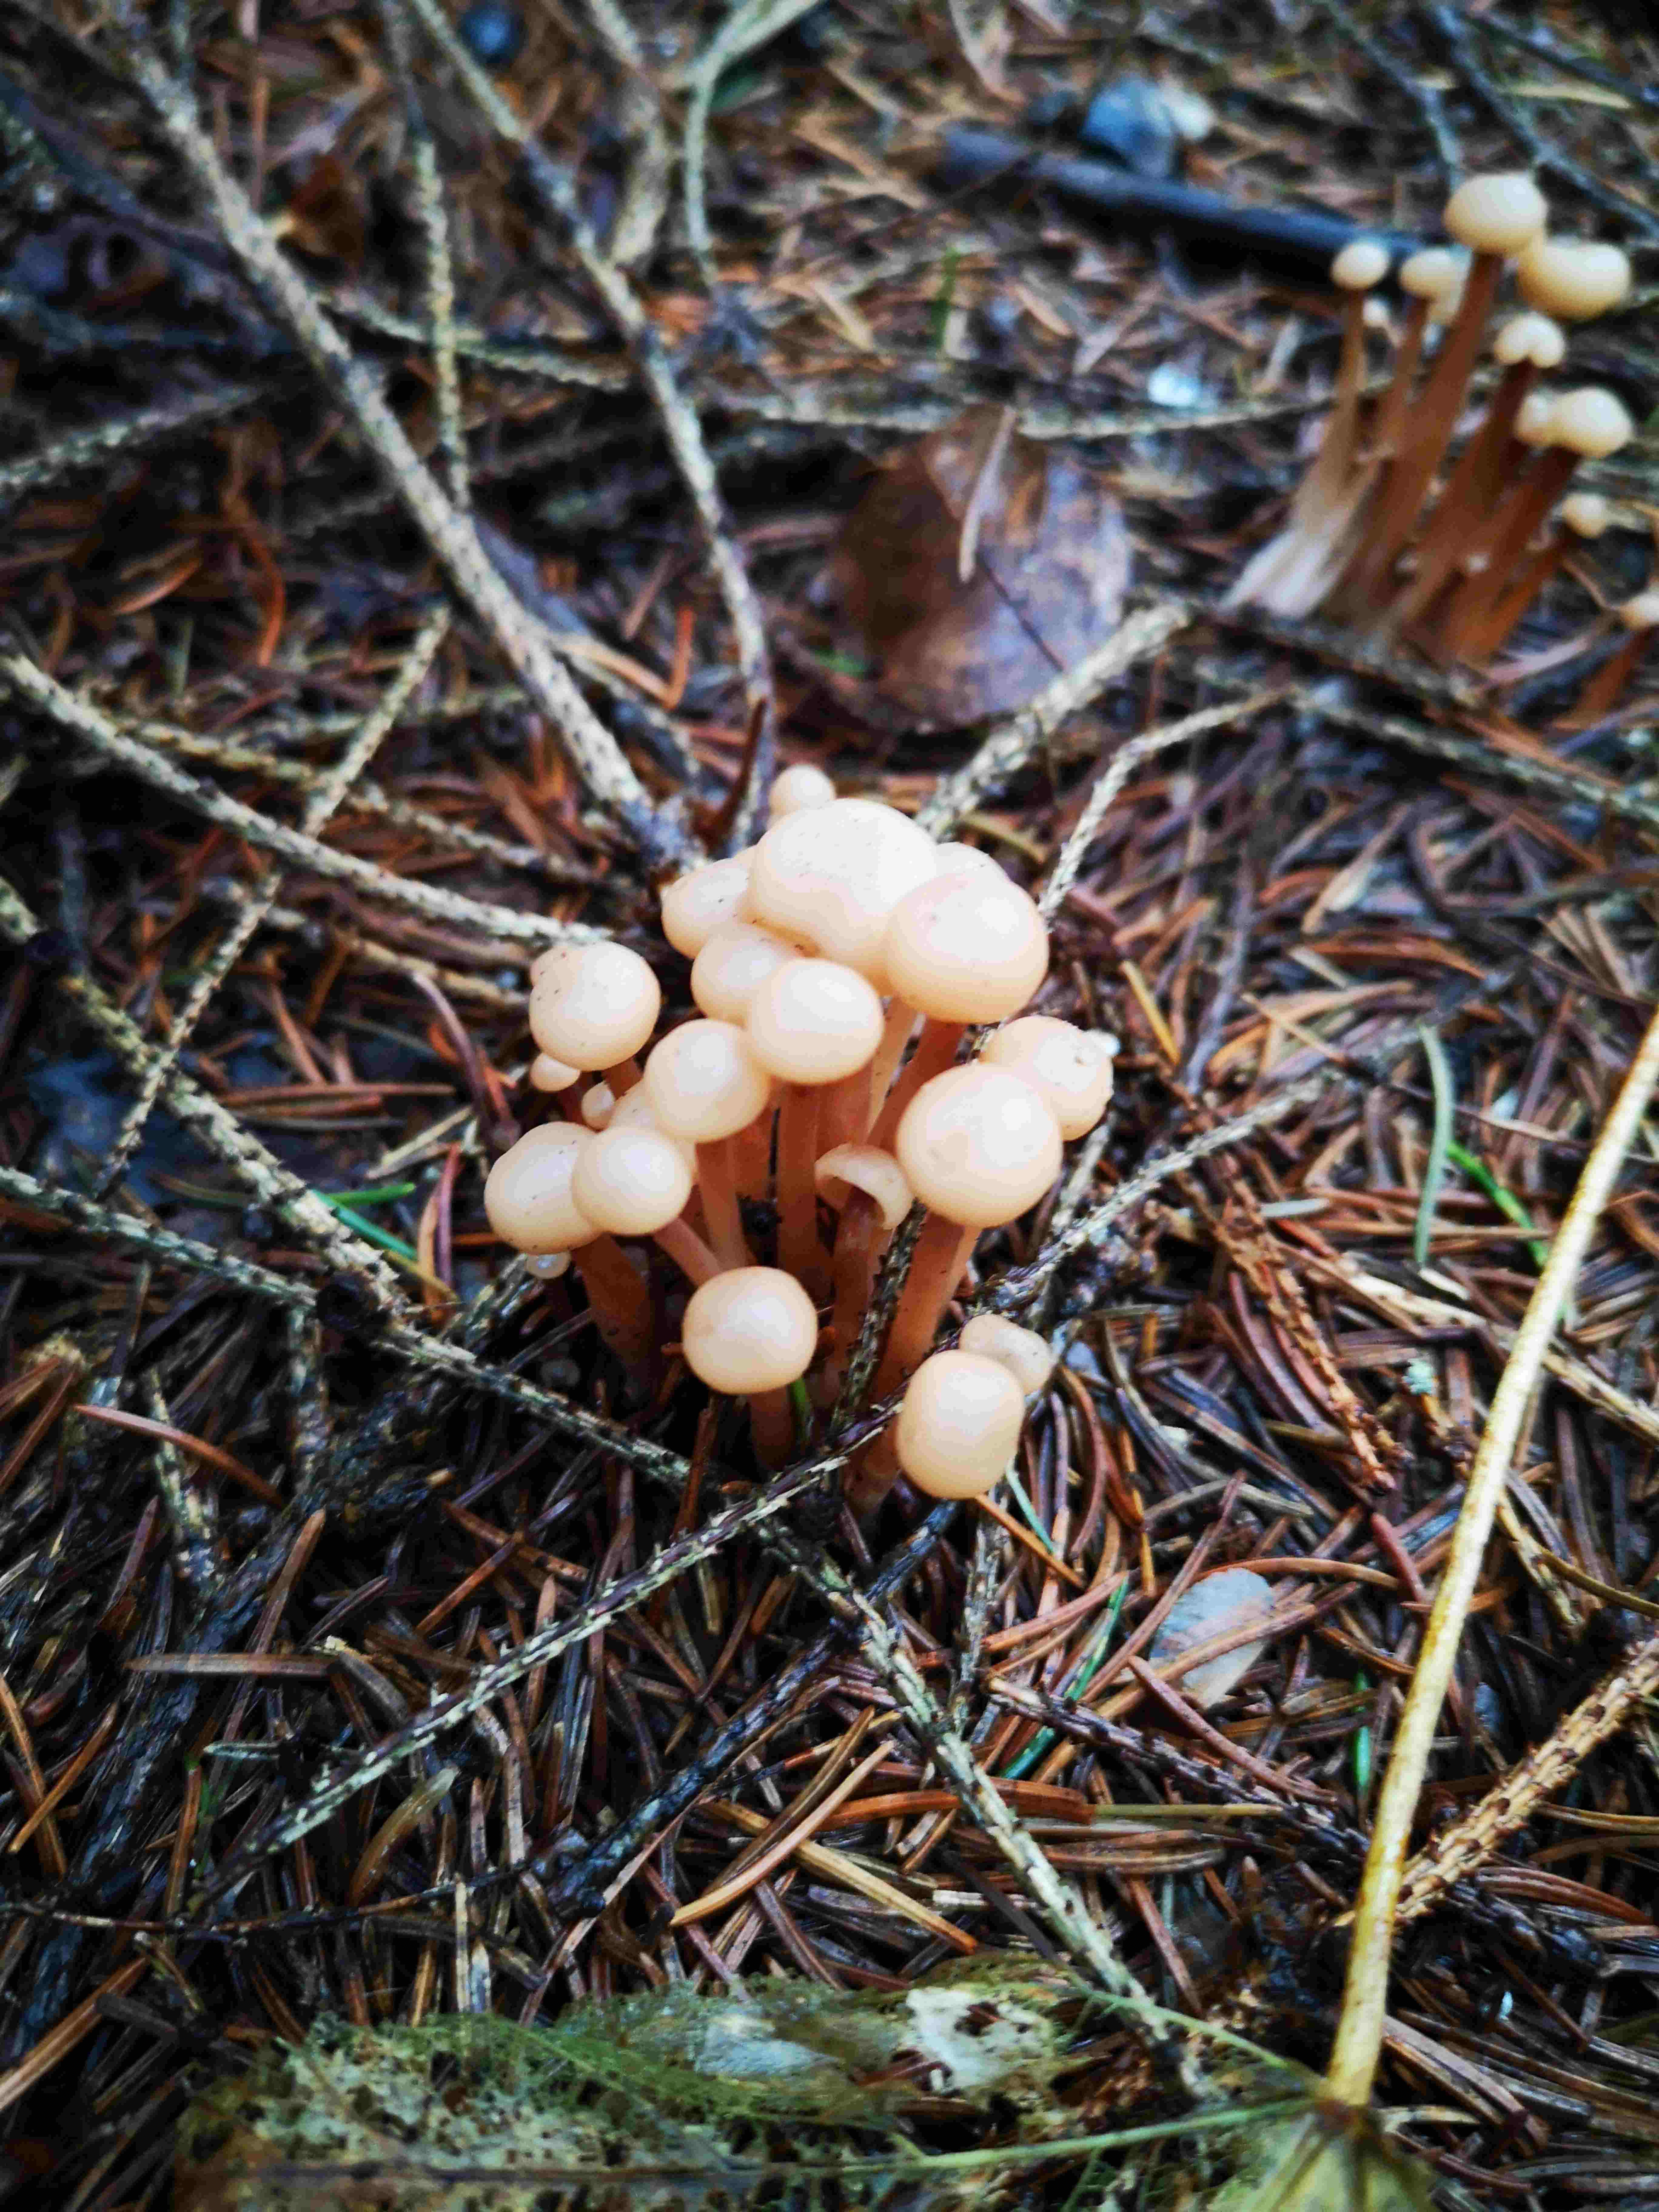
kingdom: Fungi
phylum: Basidiomycota
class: Agaricomycetes
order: Agaricales
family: Omphalotaceae
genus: Collybiopsis
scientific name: Collybiopsis confluens
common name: knippe-fladhat
